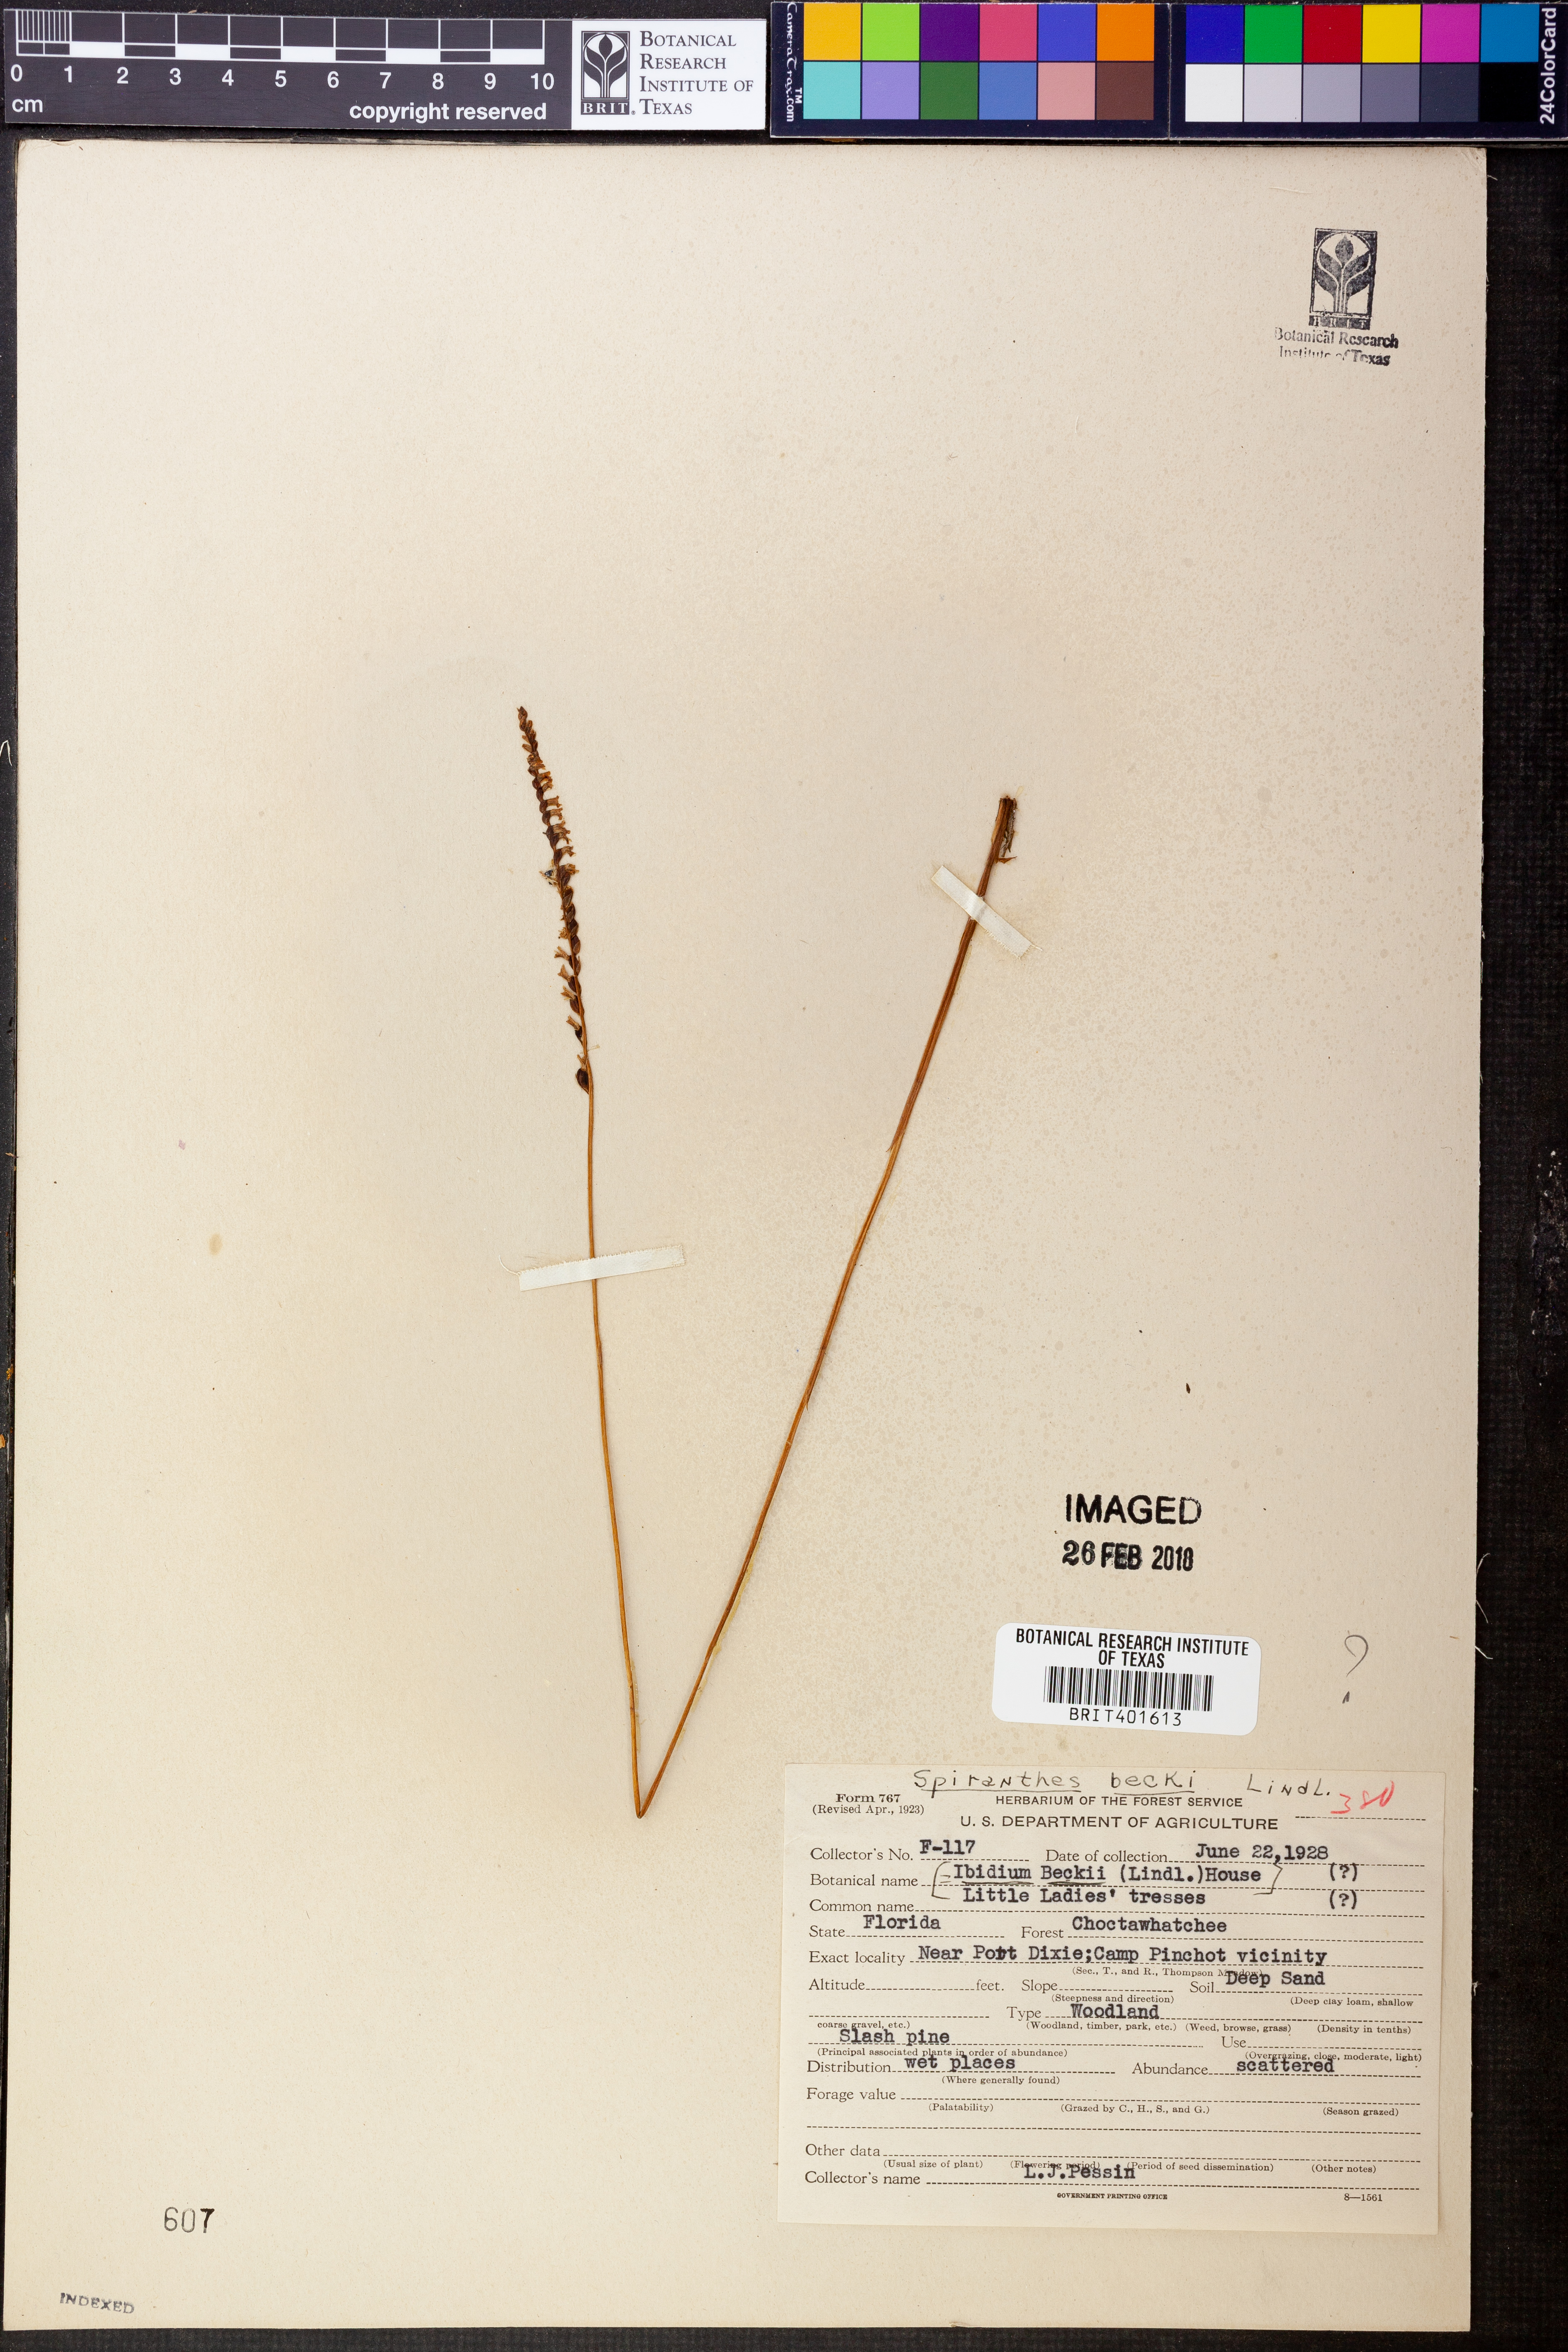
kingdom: Plantae
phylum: Tracheophyta
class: Liliopsida
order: Asparagales
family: Orchidaceae
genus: Spiranthes
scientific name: Spiranthes praecox
